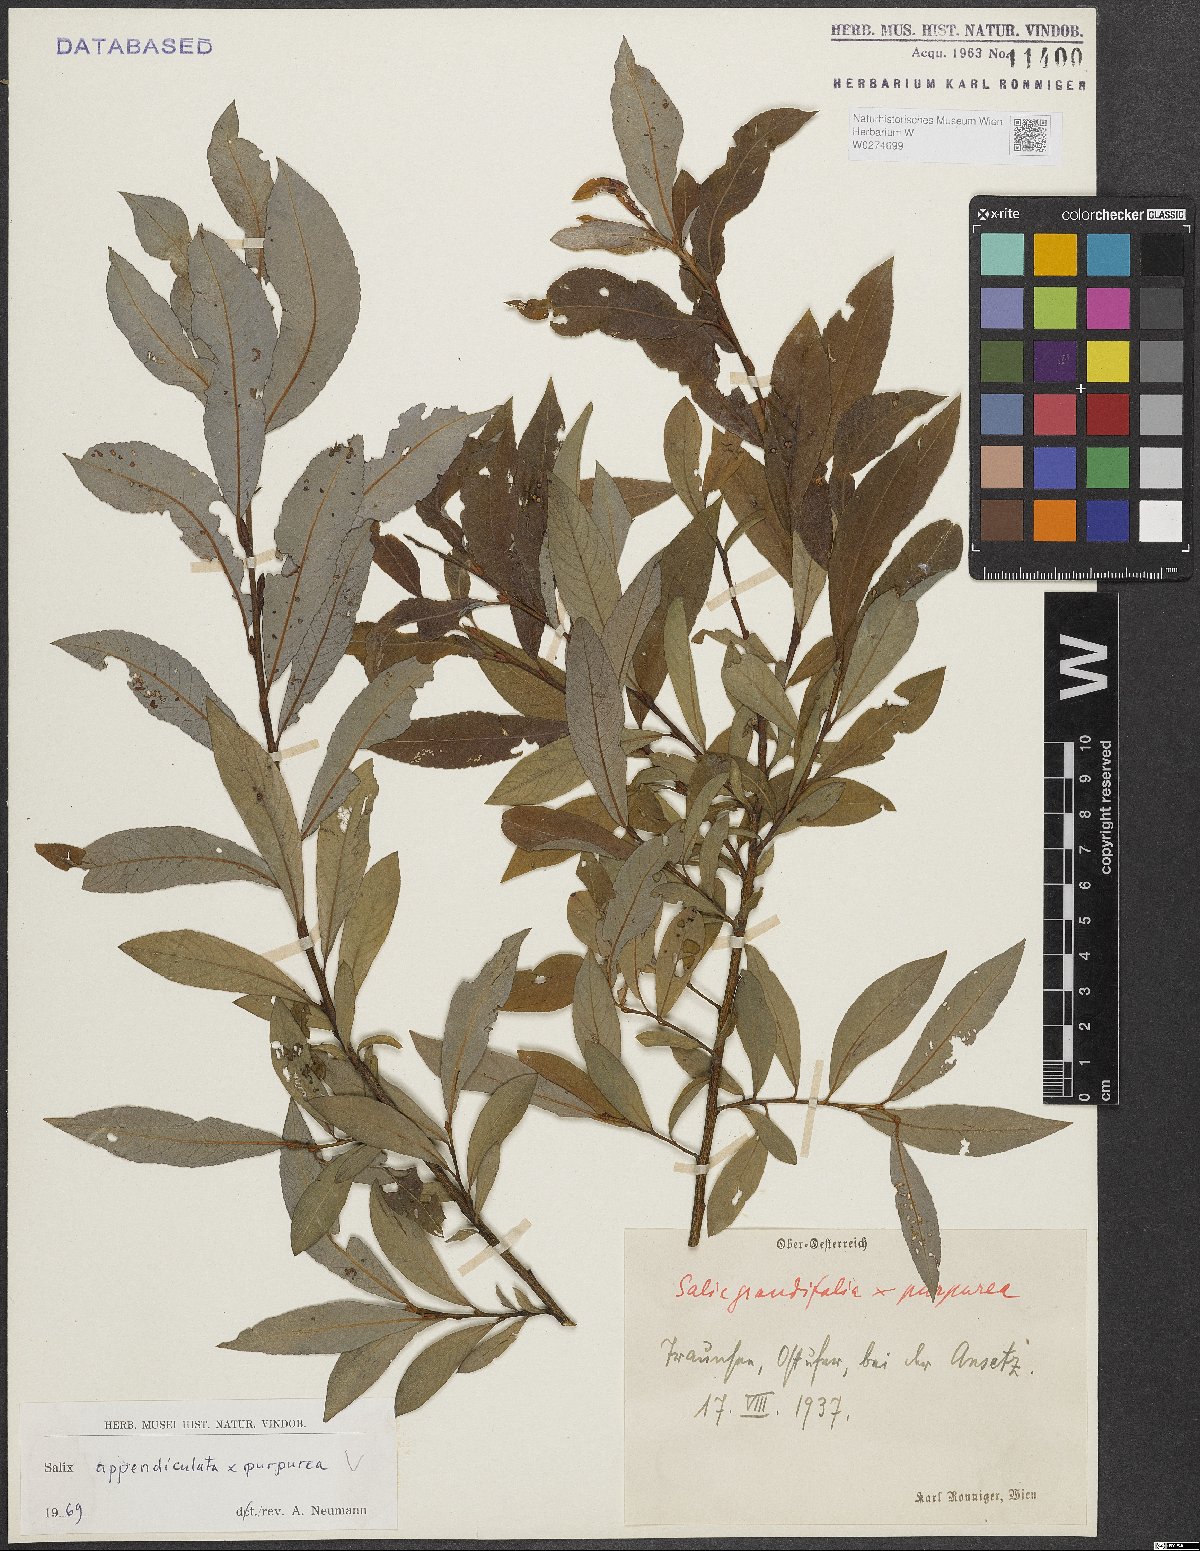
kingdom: Plantae
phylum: Tracheophyta
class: Magnoliopsida
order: Malpighiales
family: Salicaceae
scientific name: Salicaceae
